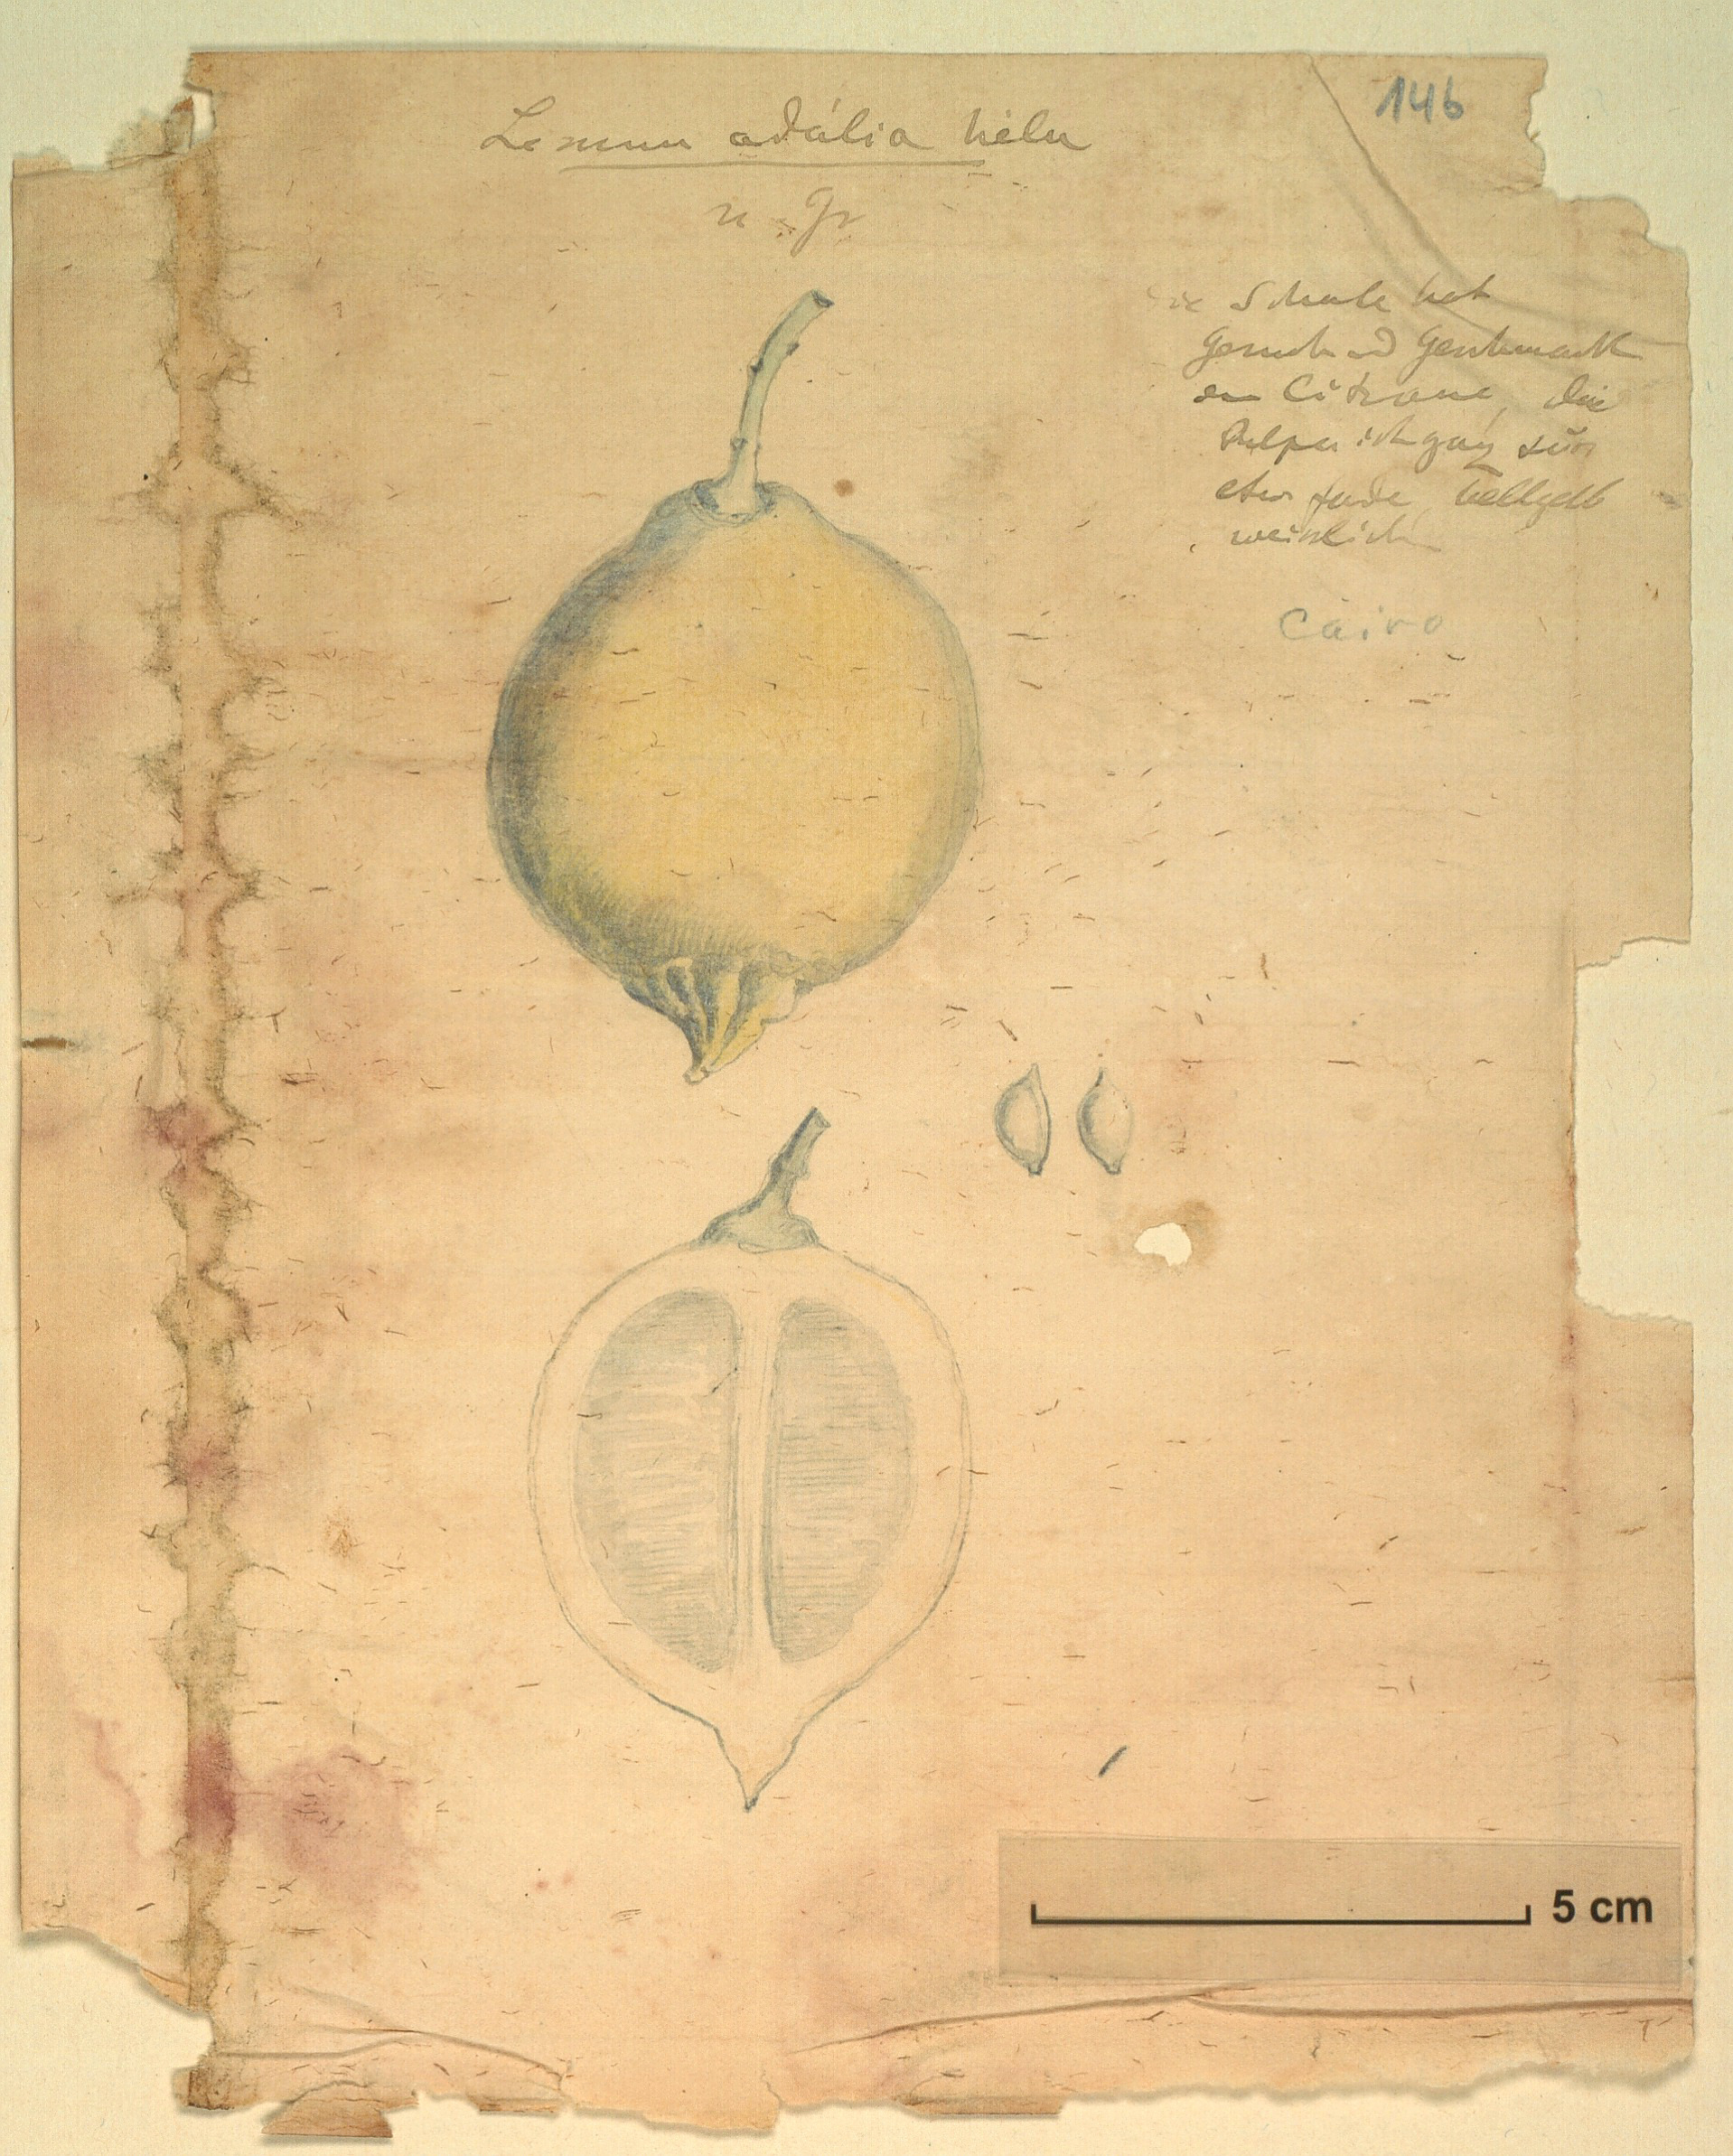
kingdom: Plantae
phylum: Tracheophyta
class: Magnoliopsida
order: Sapindales
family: Rutaceae
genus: Citrus
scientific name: Citrus
